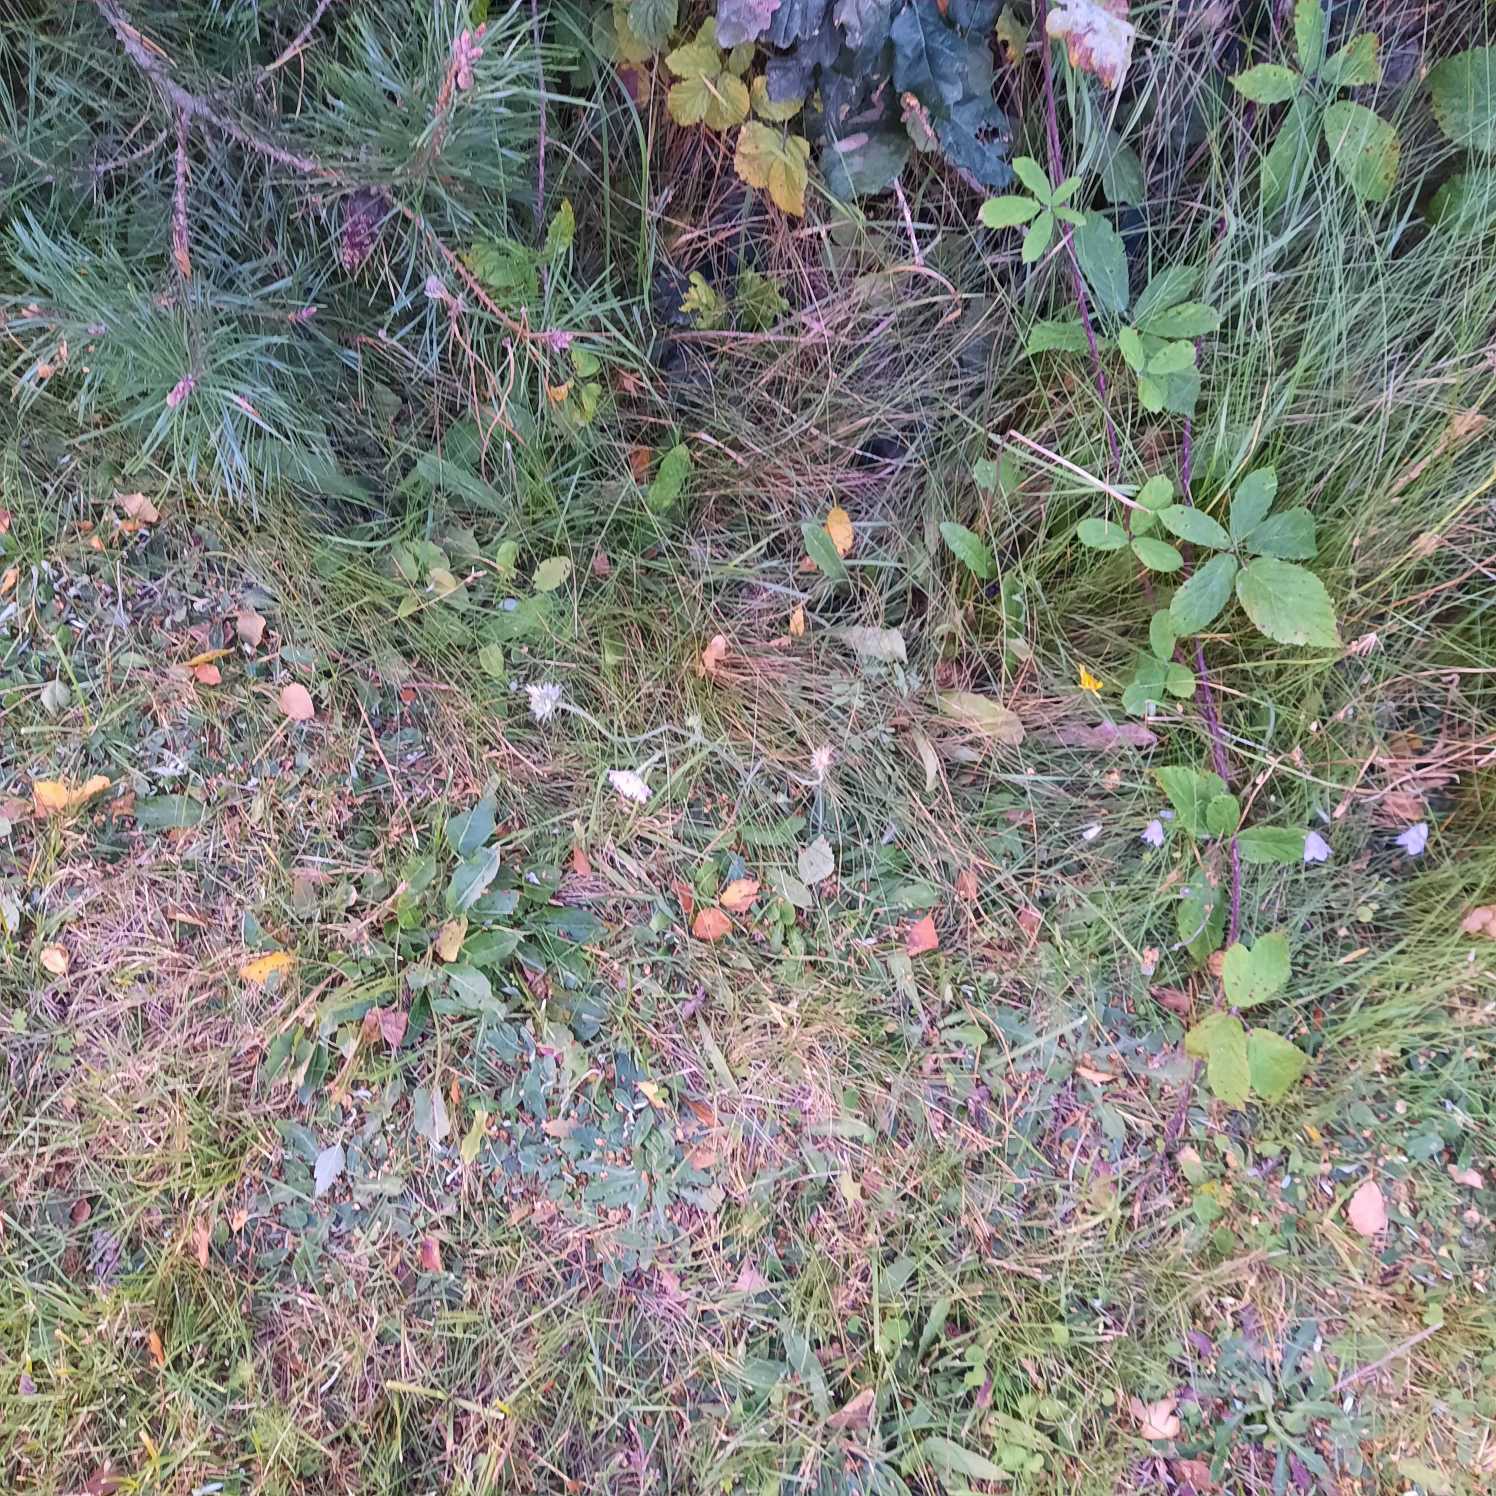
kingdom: Plantae
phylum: Tracheophyta
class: Magnoliopsida
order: Dipsacales
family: Caprifoliaceae
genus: Knautia
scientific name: Knautia arvensis
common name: Blåhat
